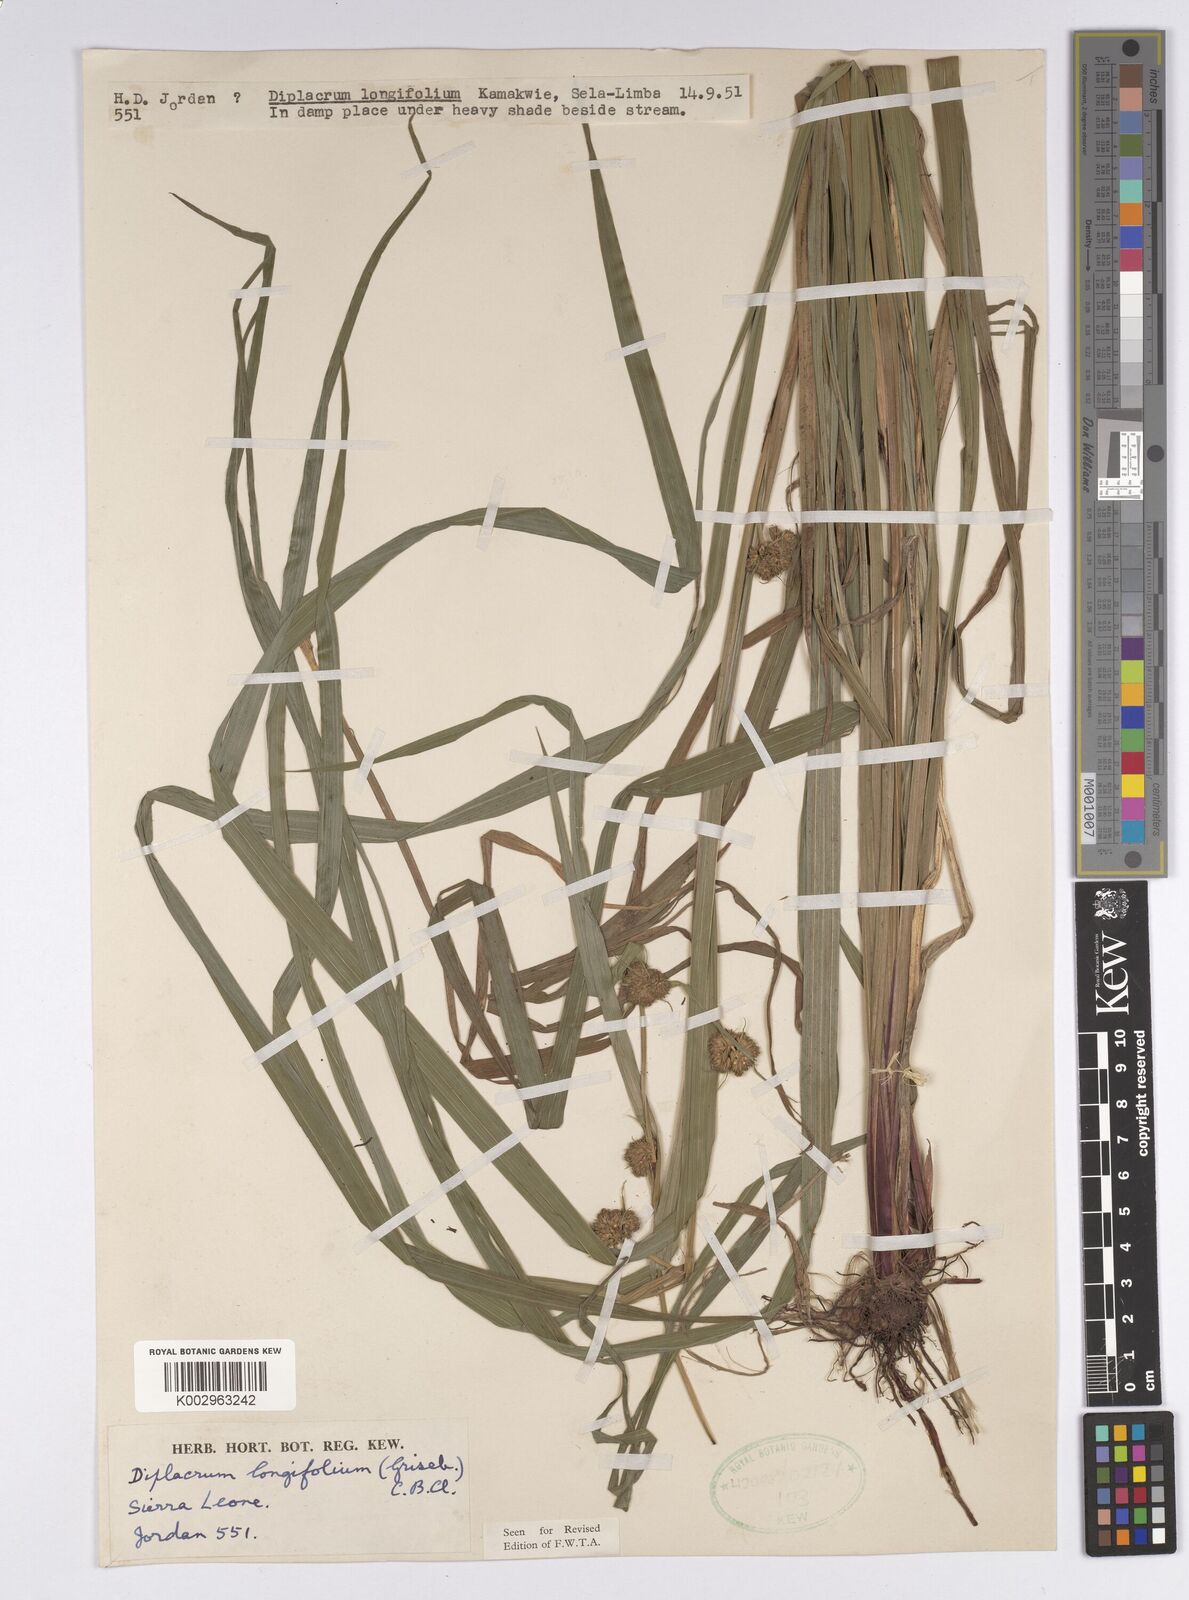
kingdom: Plantae
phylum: Tracheophyta
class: Liliopsida
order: Poales
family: Cyperaceae
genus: Diplacrum
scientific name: Diplacrum capitatum
